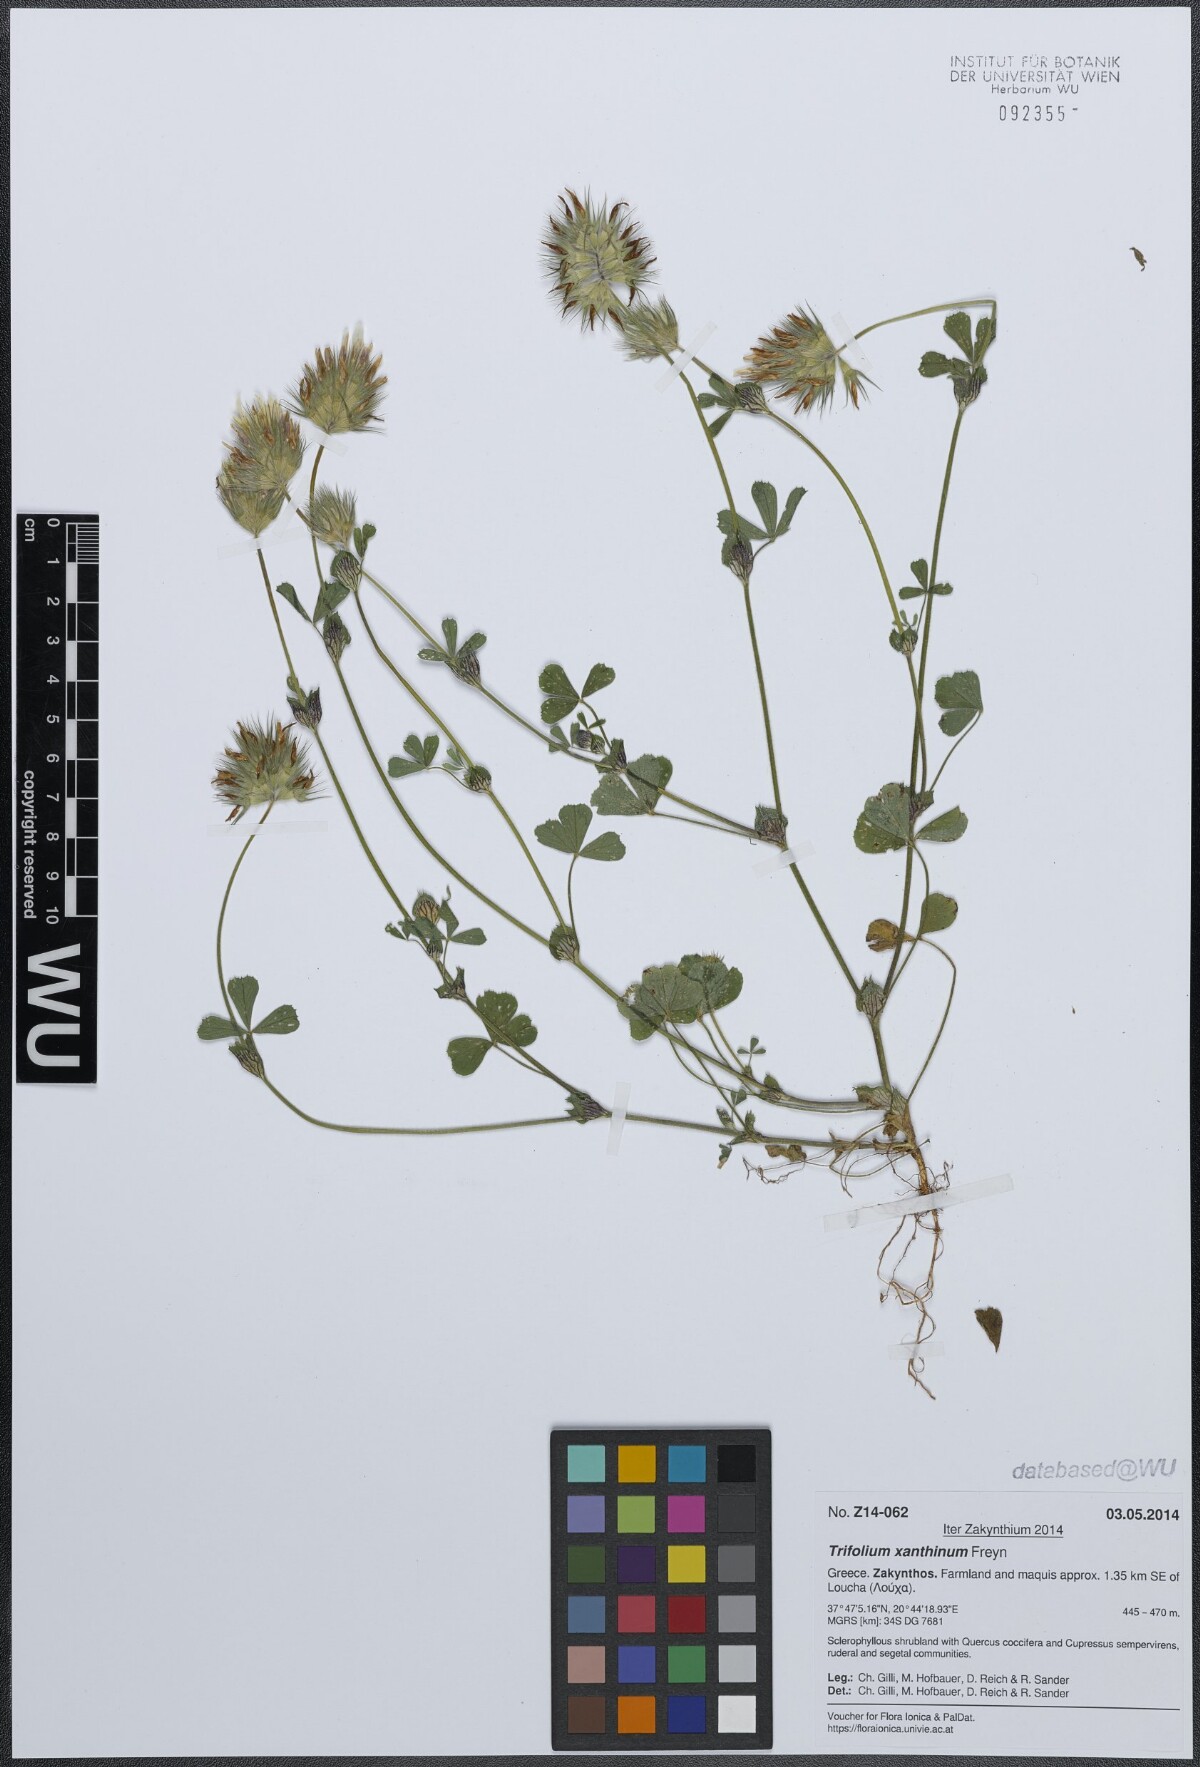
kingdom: Plantae
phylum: Tracheophyta
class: Magnoliopsida
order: Fabales
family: Fabaceae
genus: Trifolium
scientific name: Trifolium xanthinum
